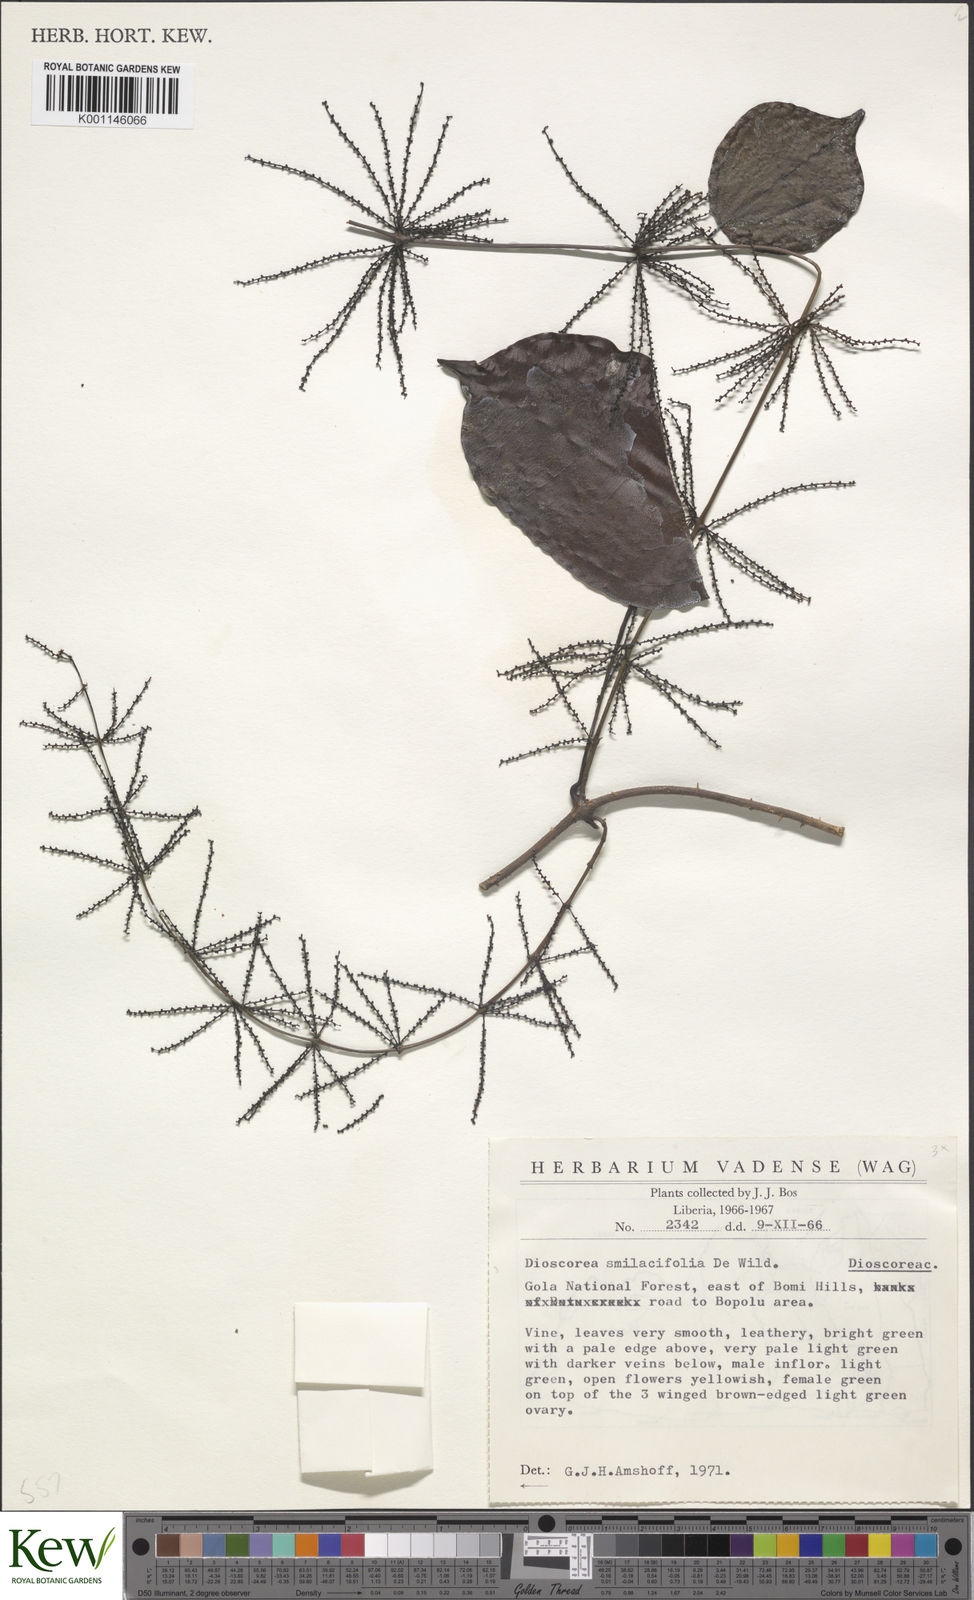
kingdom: Plantae
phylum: Tracheophyta
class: Liliopsida
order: Dioscoreales
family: Dioscoreaceae
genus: Dioscorea
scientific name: Dioscorea smilacifolia
